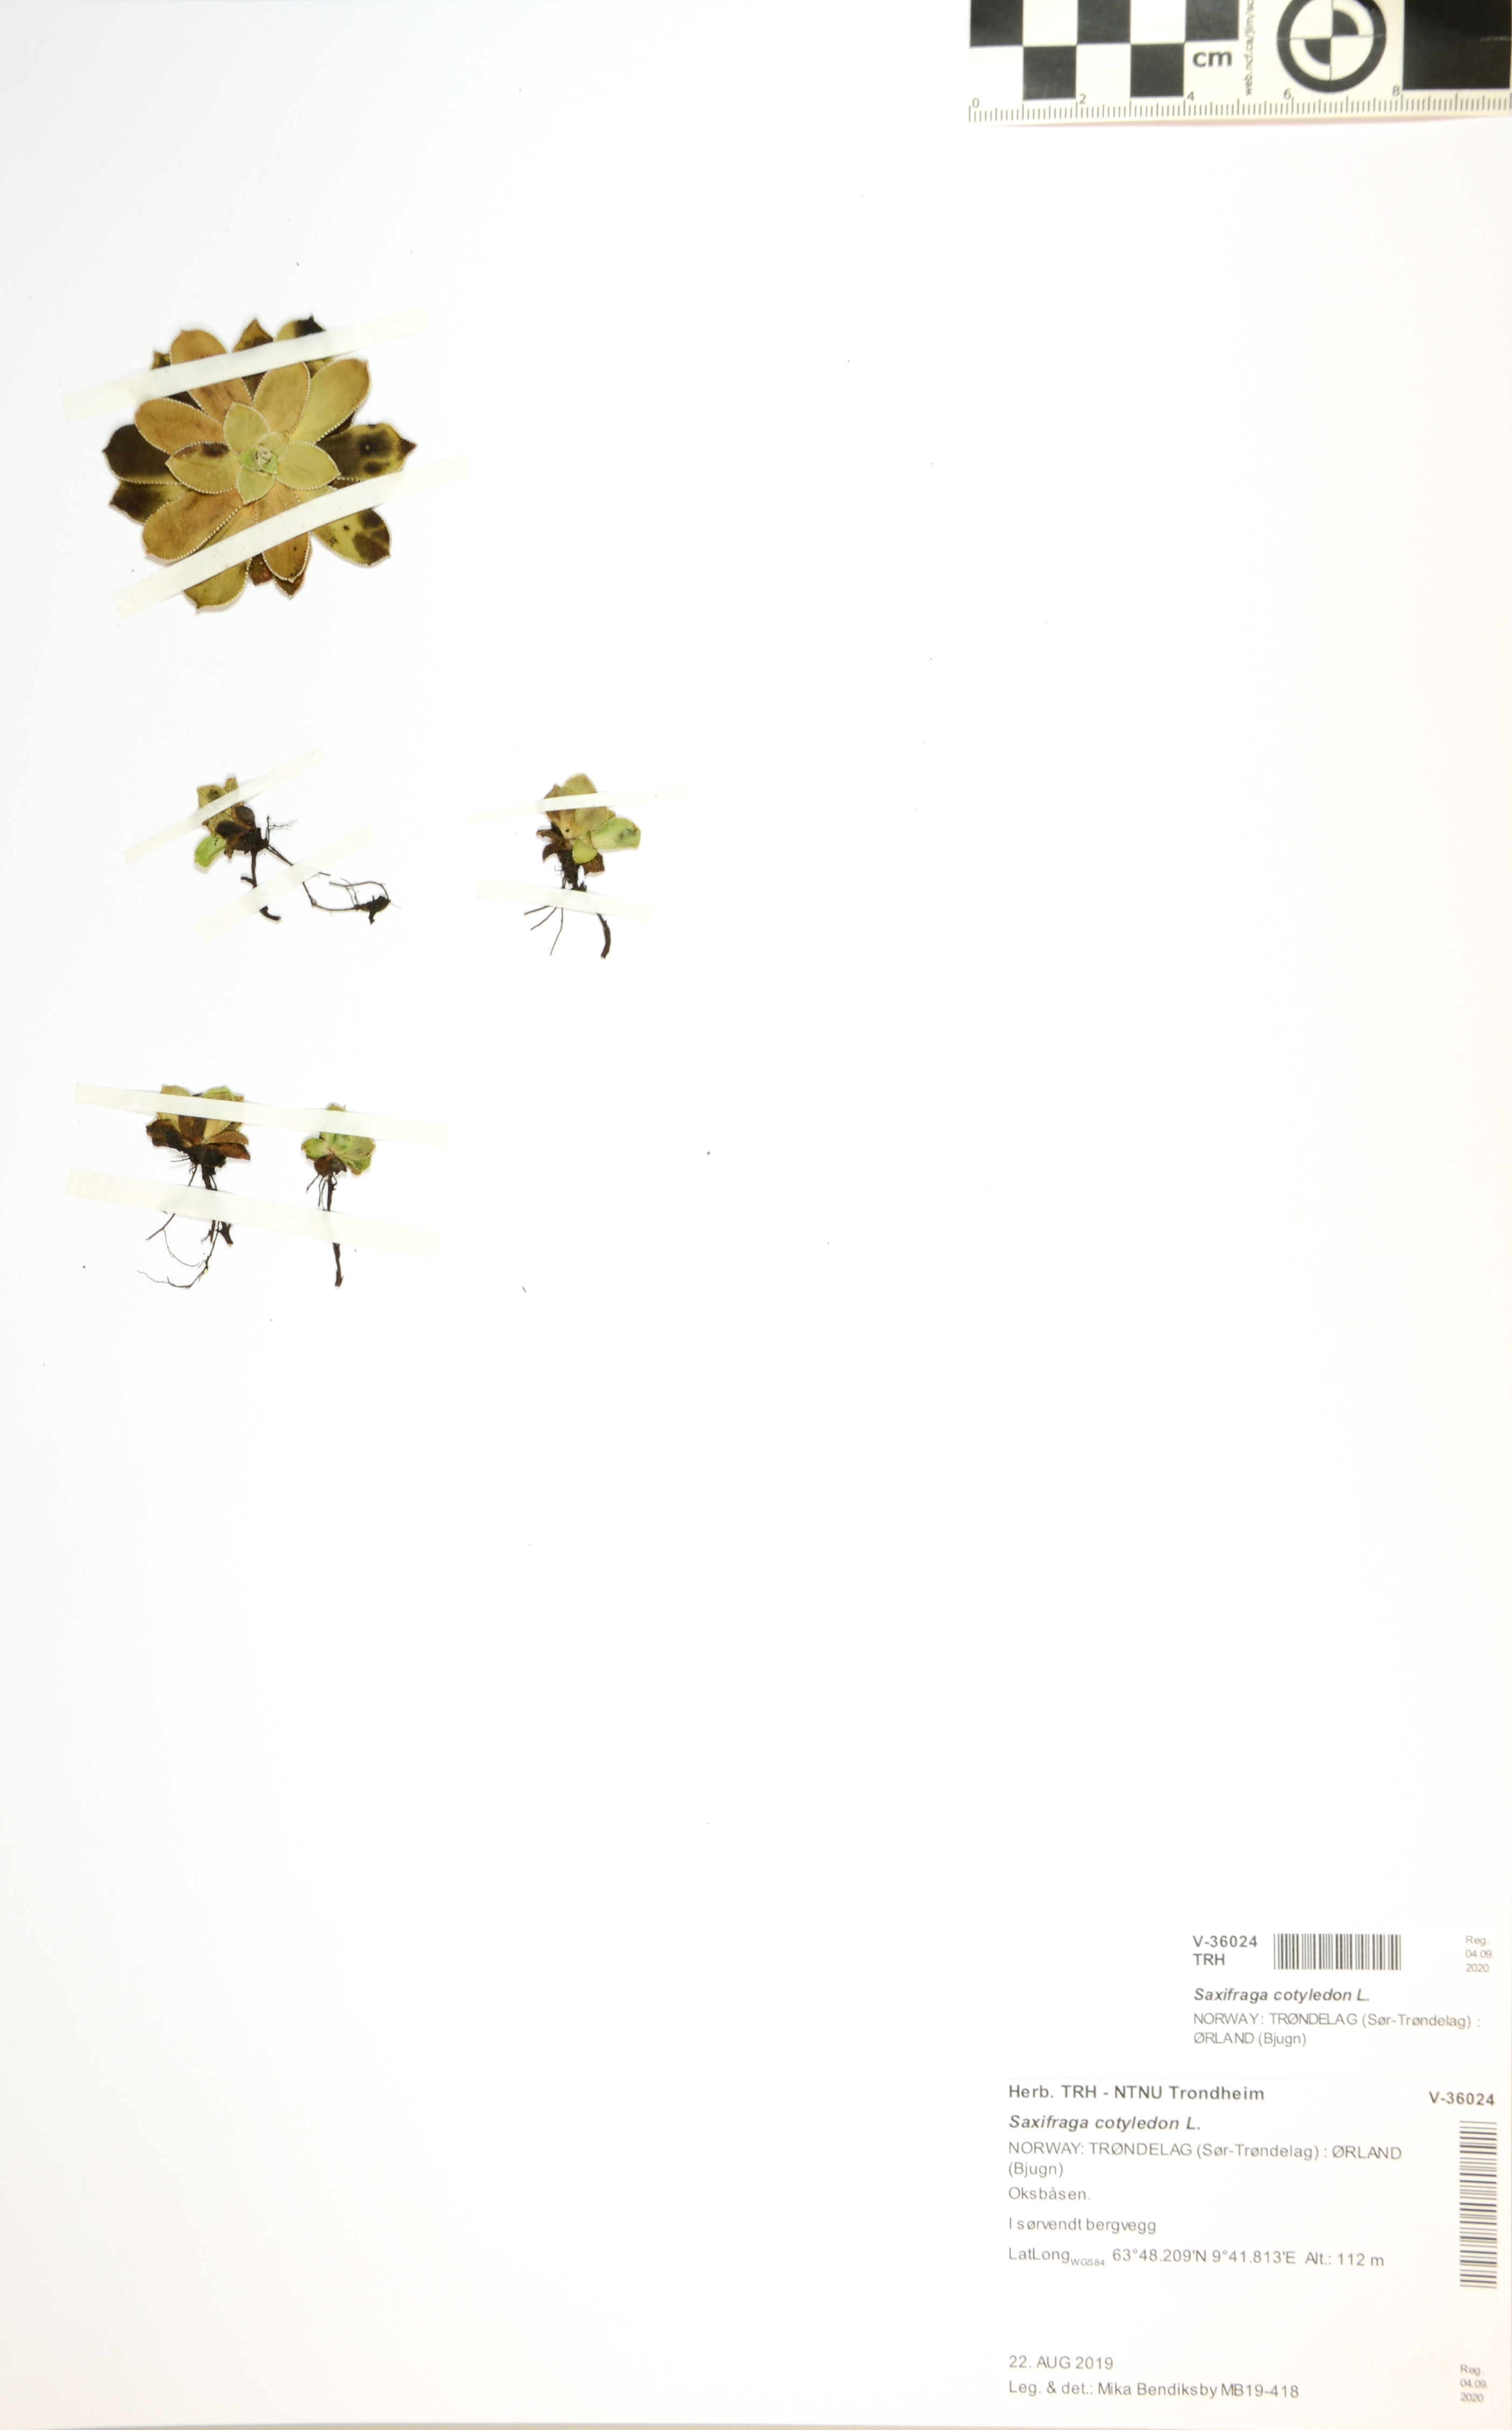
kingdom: Plantae
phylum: Tracheophyta
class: Magnoliopsida
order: Saxifragales
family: Saxifragaceae
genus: Saxifraga
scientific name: Saxifraga cotyledon
